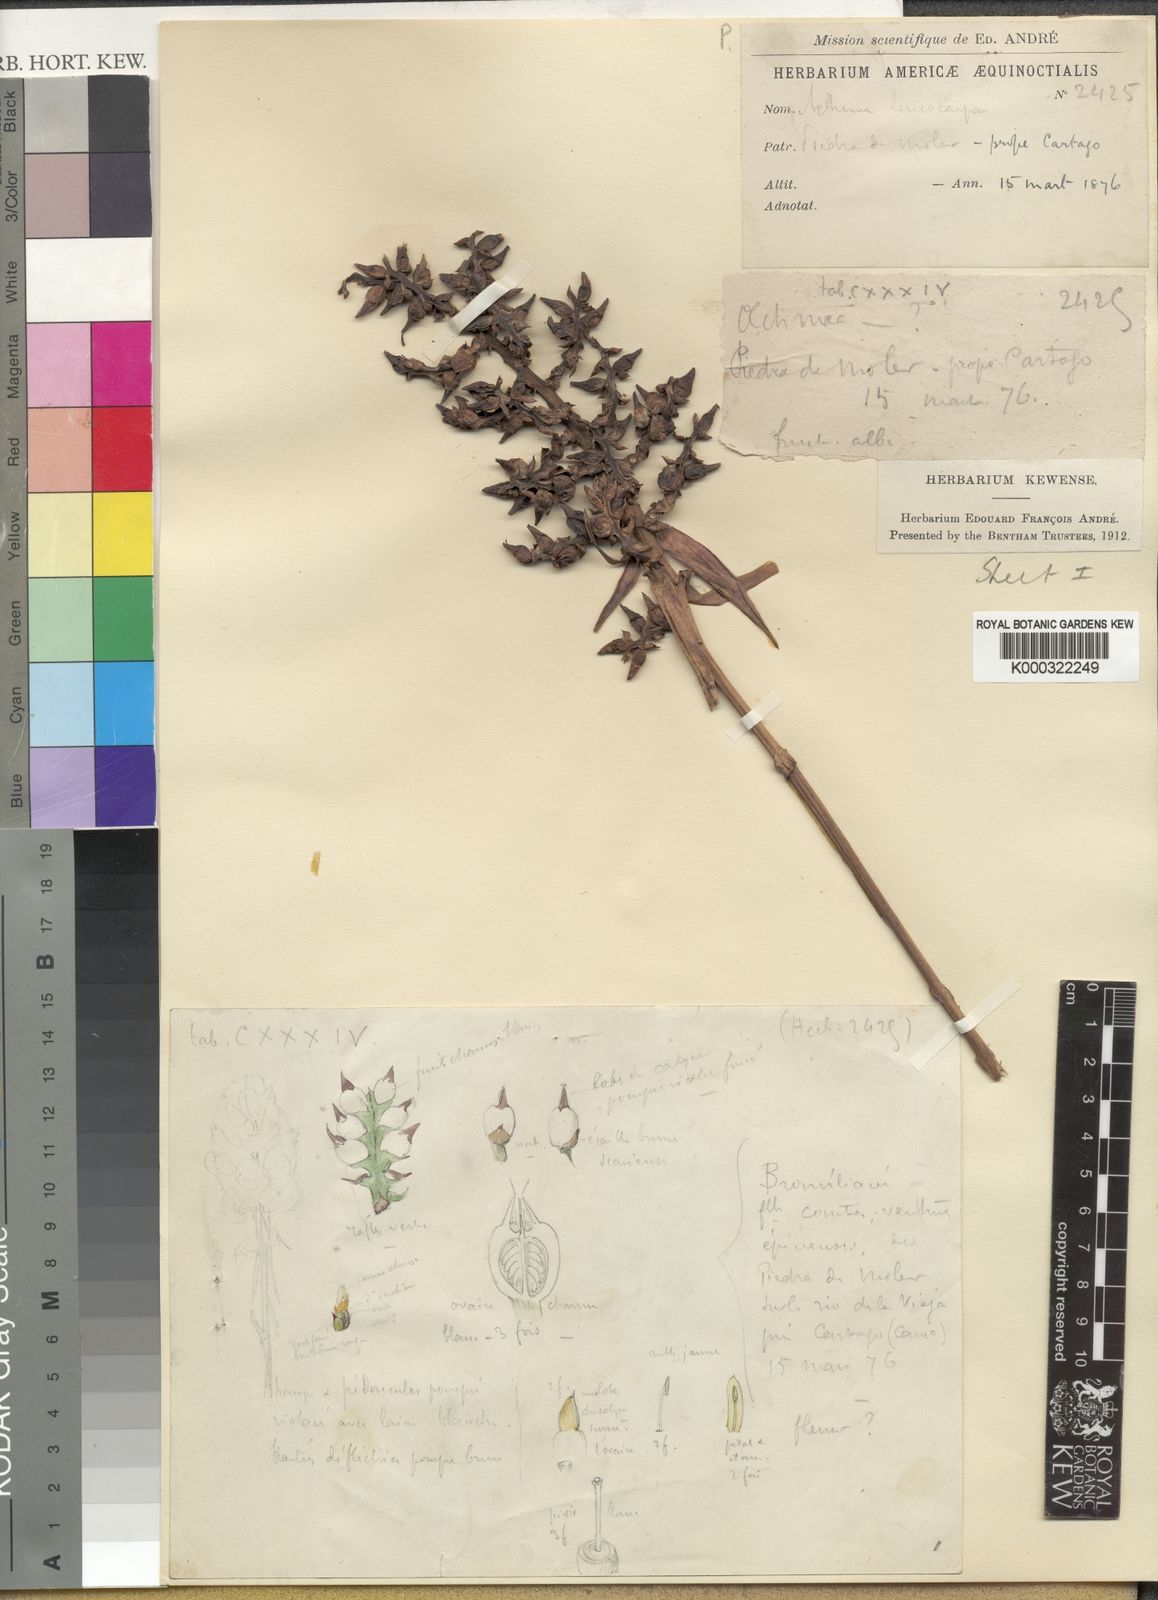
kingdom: Plantae
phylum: Tracheophyta
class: Liliopsida
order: Poales
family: Bromeliaceae
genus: Aechmea
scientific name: Aechmea
